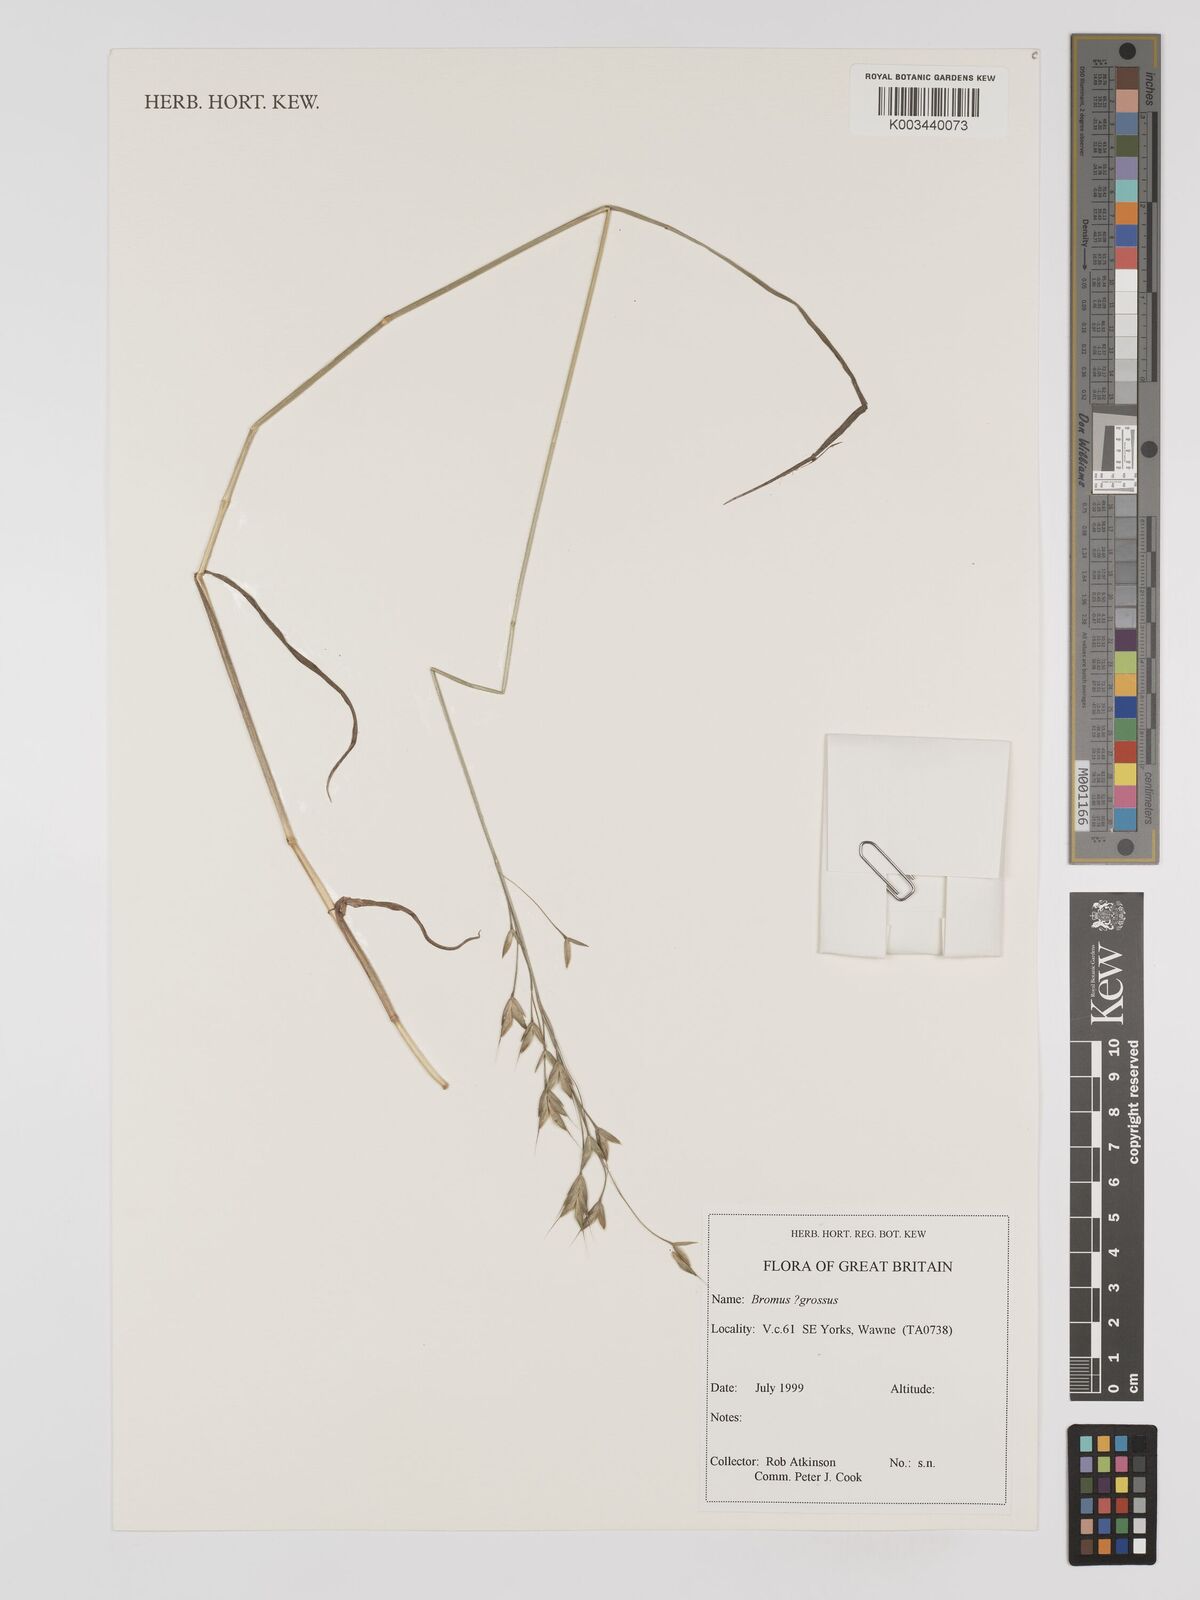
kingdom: Plantae
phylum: Tracheophyta
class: Liliopsida
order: Poales
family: Poaceae
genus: Bromus
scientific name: Bromus grossus
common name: Whiskered brome
